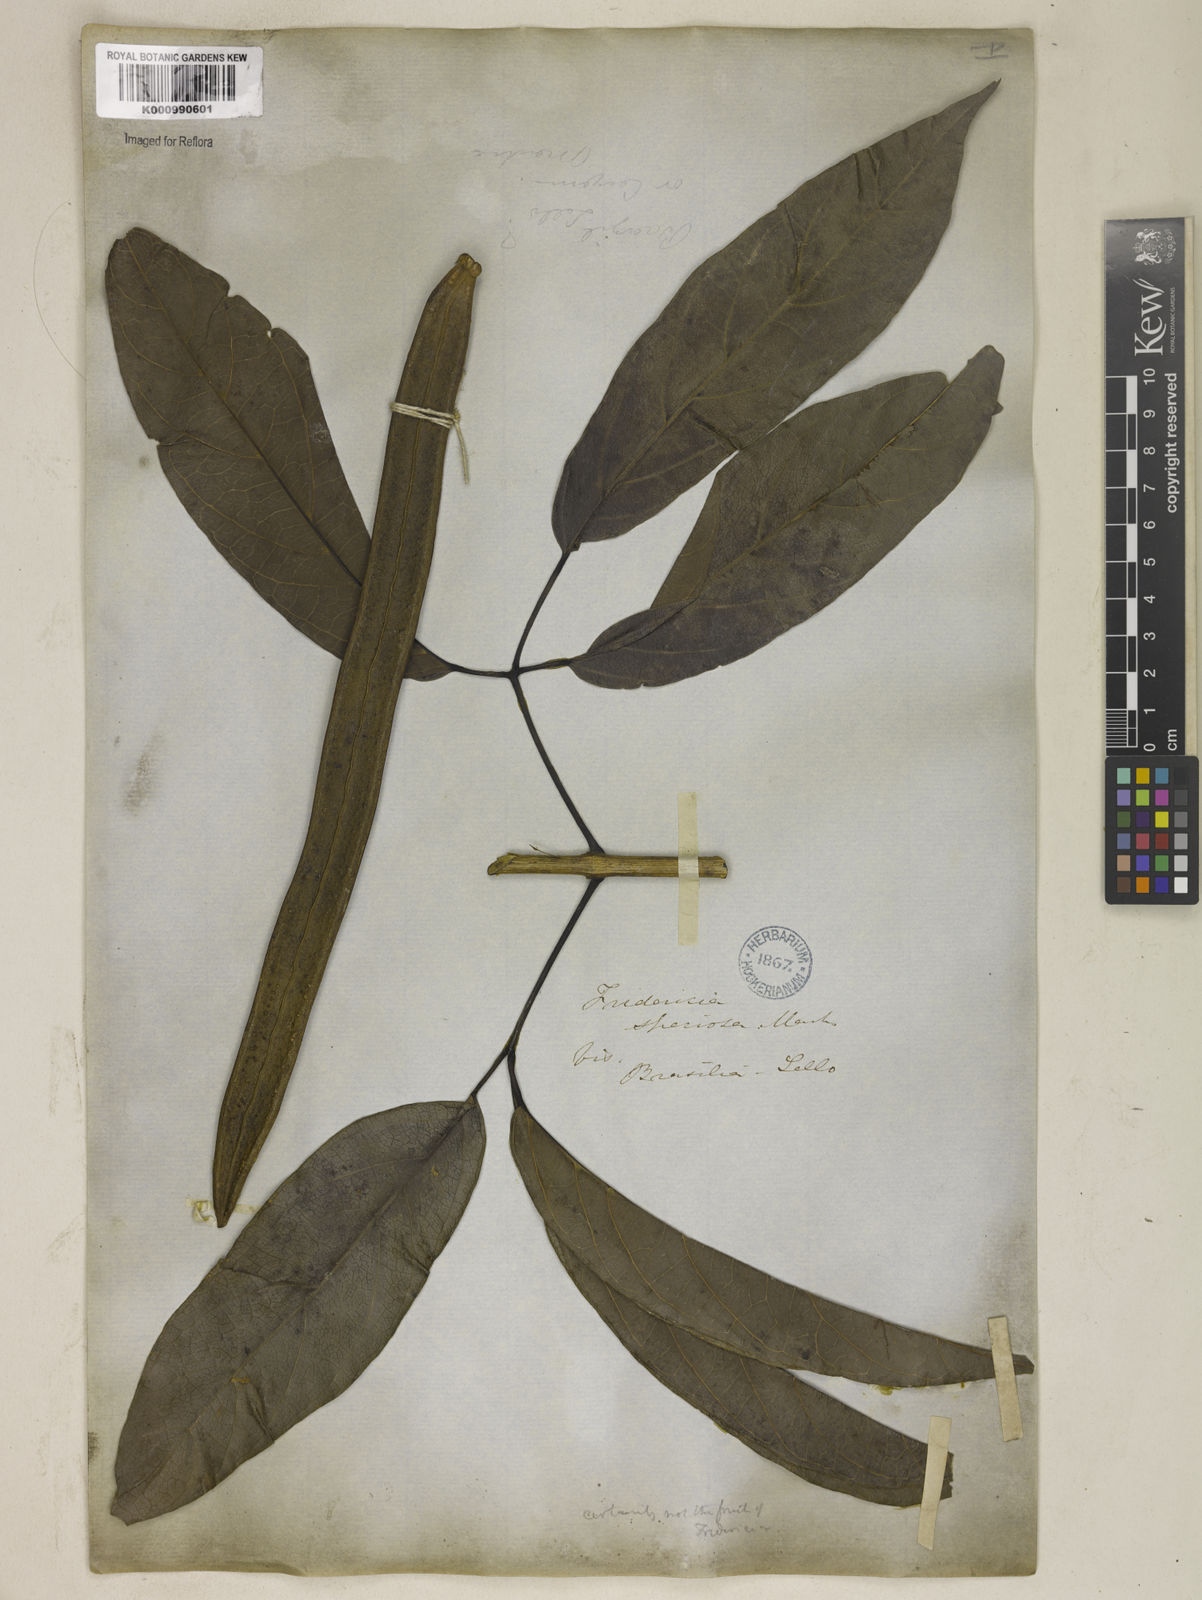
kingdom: Plantae
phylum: Tracheophyta
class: Magnoliopsida
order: Lamiales
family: Bignoniaceae
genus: Fridericia
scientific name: Fridericia speciosa
